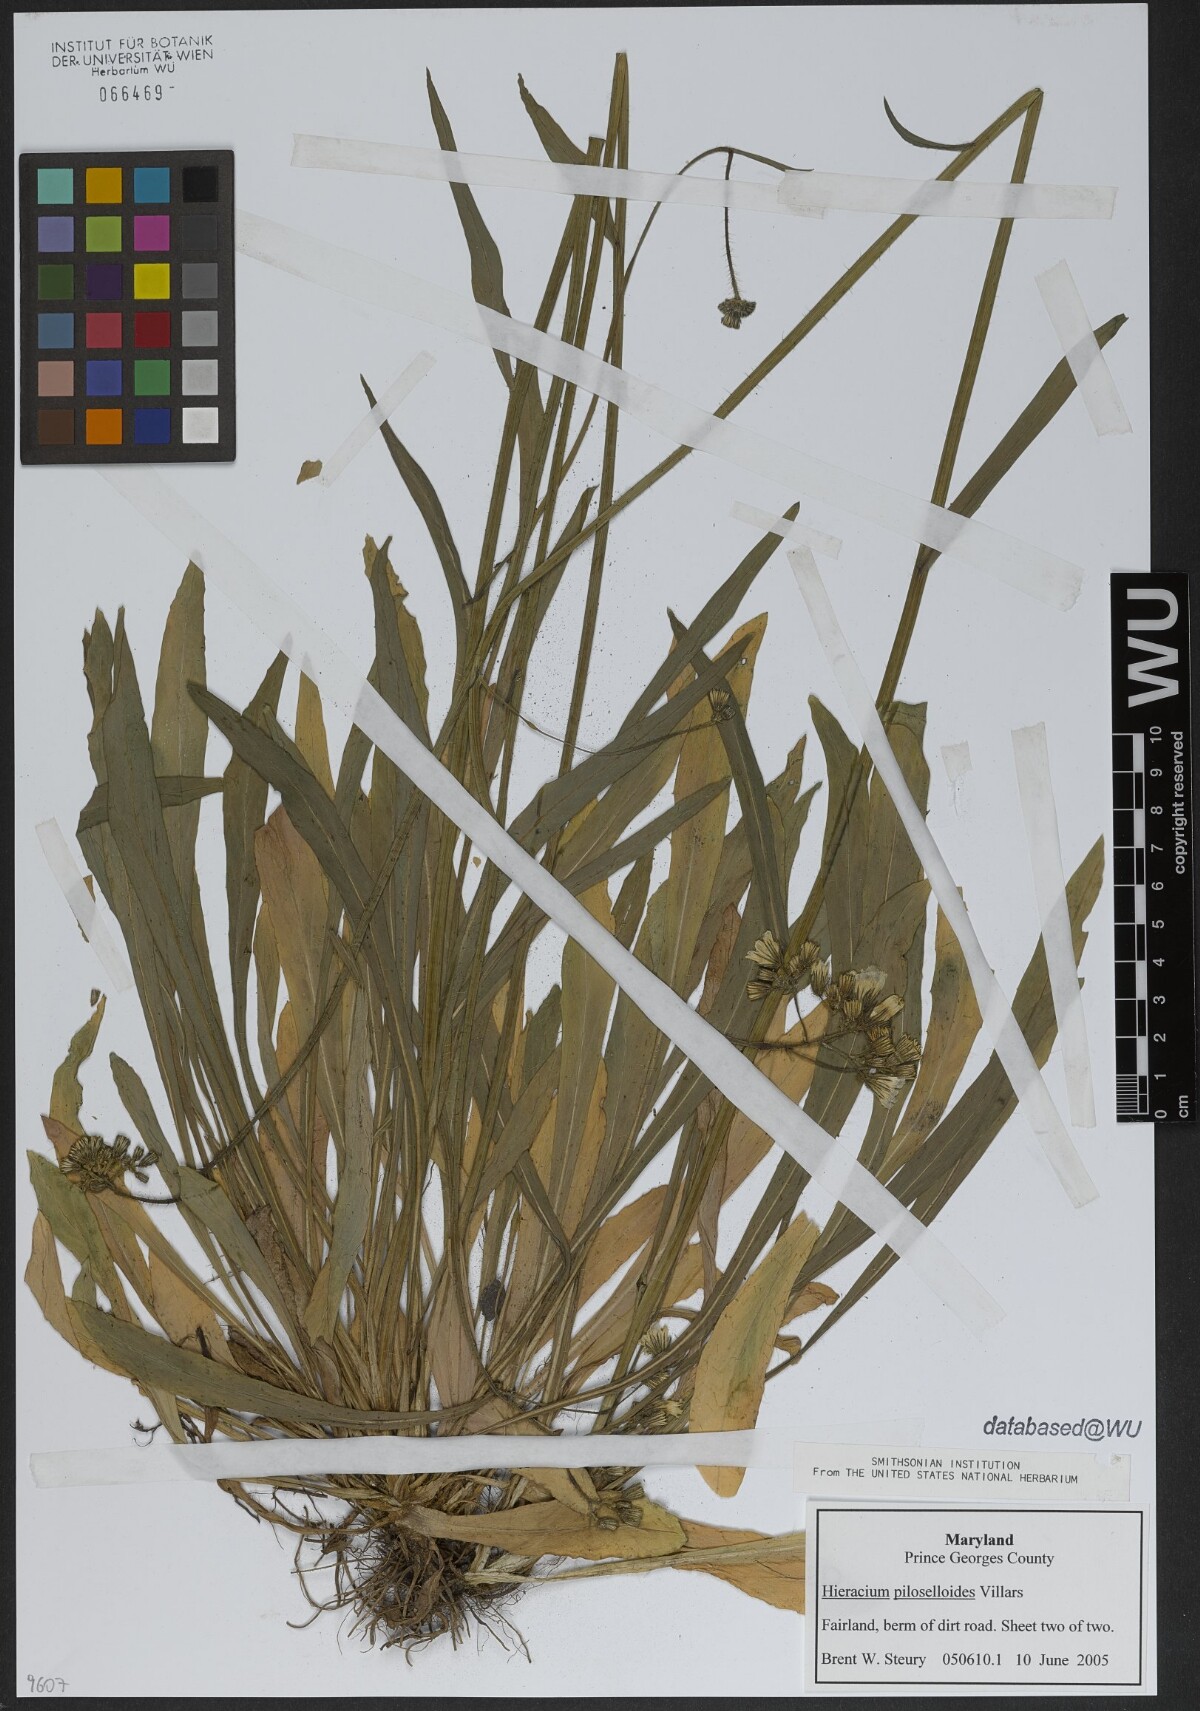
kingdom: Plantae
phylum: Tracheophyta
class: Magnoliopsida
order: Asterales
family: Asteraceae
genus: Pilosella
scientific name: Pilosella piloselloides
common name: Glaucous king-devil
